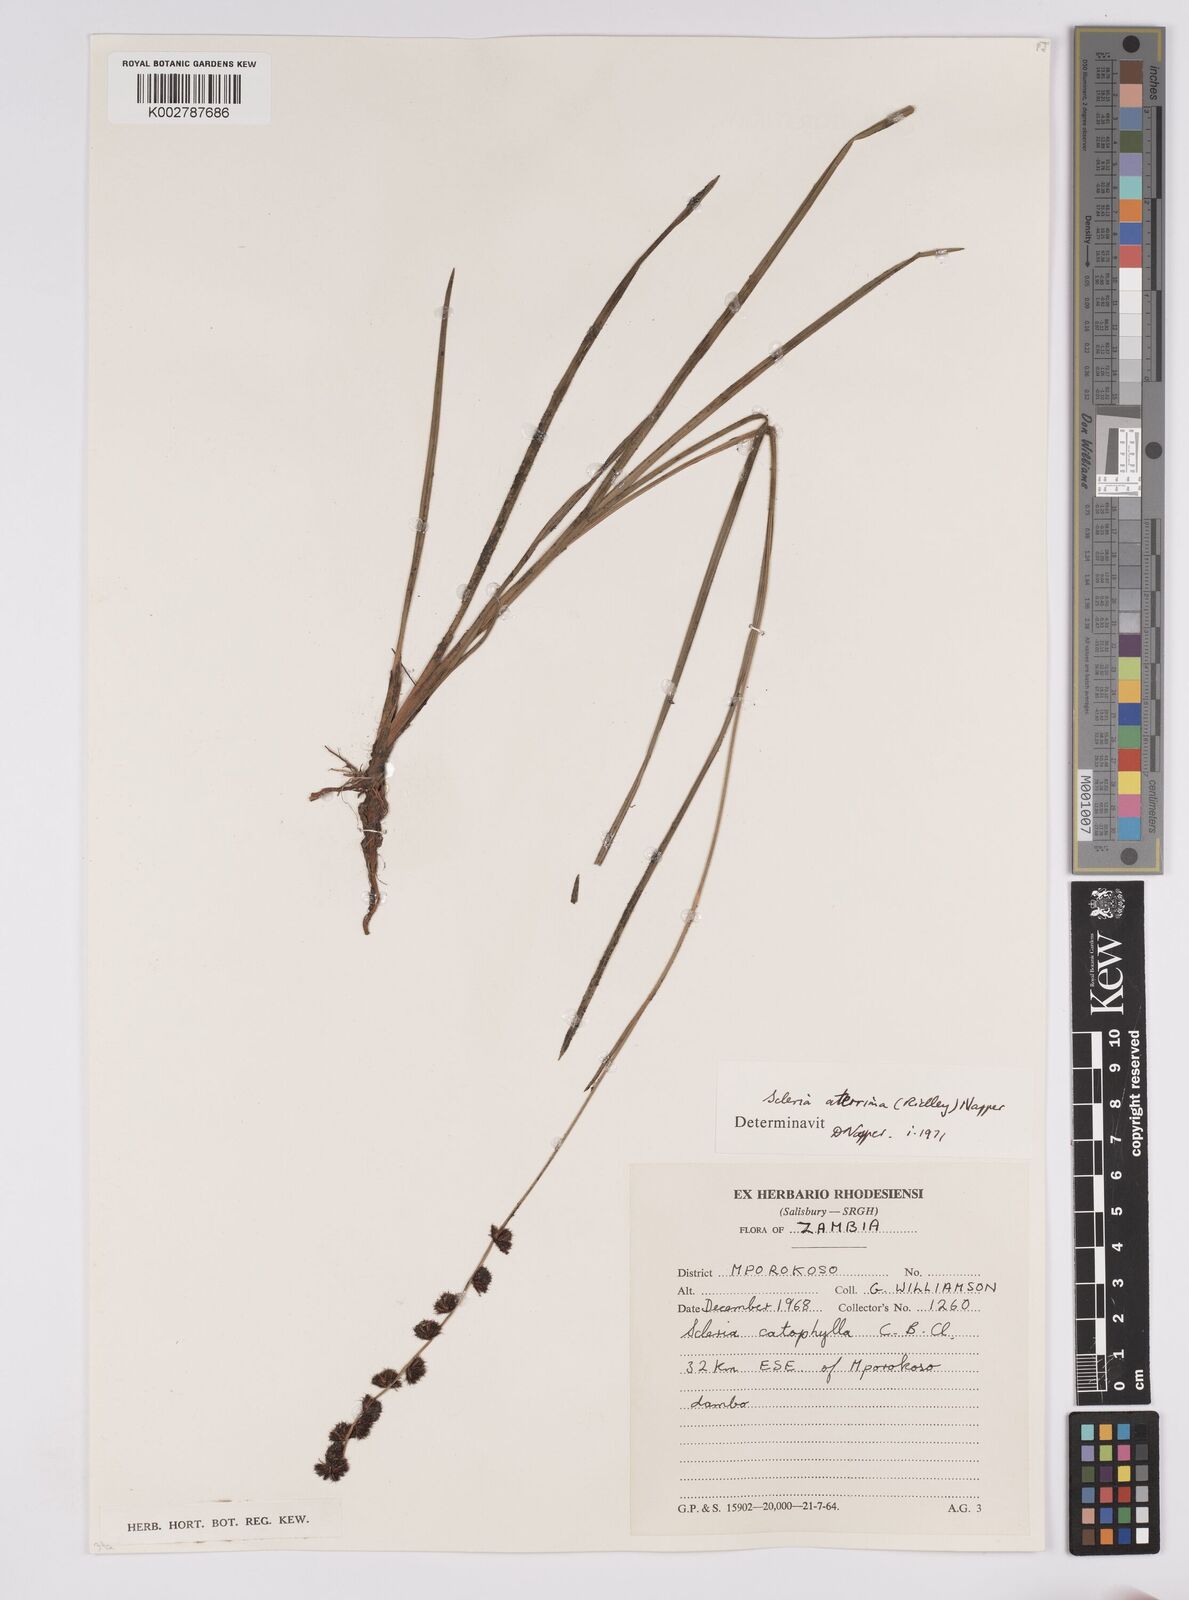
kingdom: Plantae
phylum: Tracheophyta
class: Liliopsida
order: Poales
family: Cyperaceae
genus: Scleria
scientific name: Scleria catophylla
